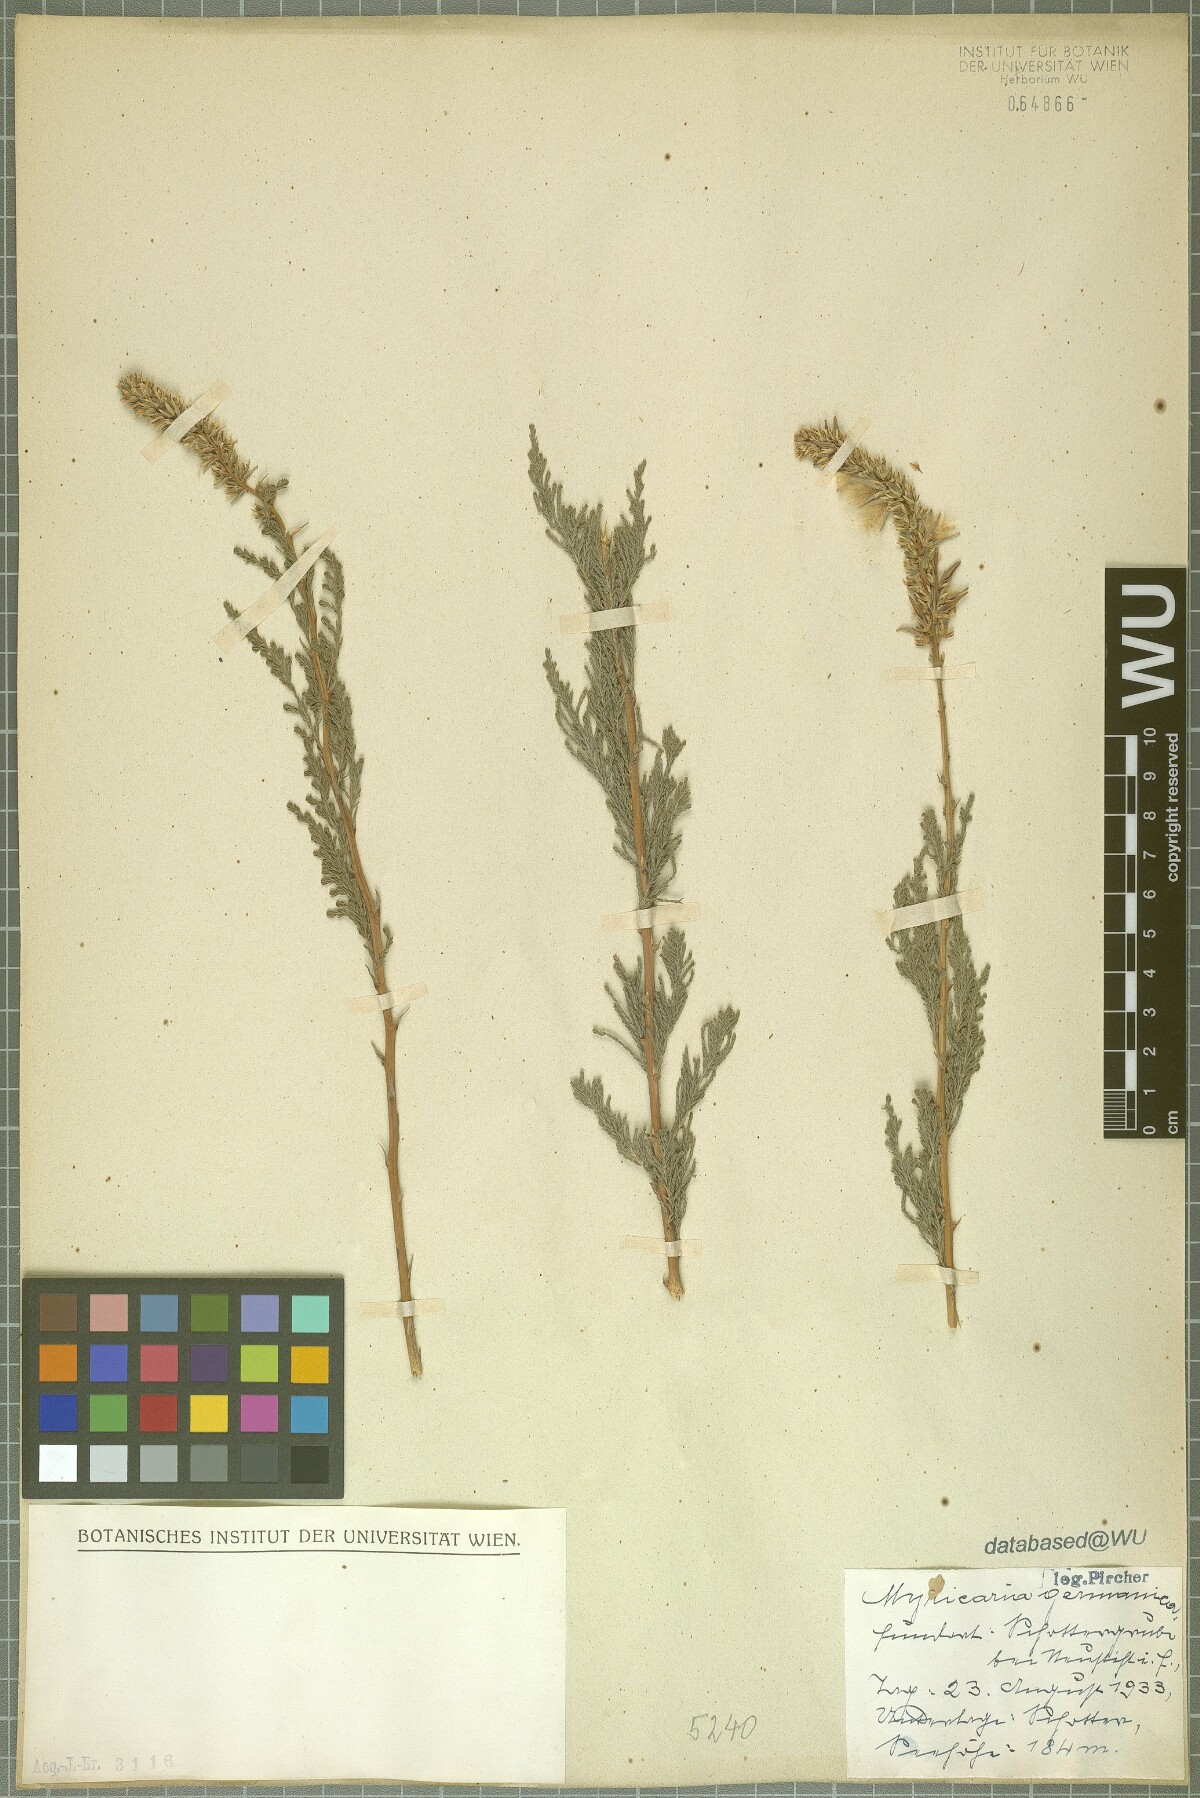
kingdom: Plantae
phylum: Tracheophyta
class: Magnoliopsida
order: Caryophyllales
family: Tamaricaceae
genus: Myricaria
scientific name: Myricaria germanica
